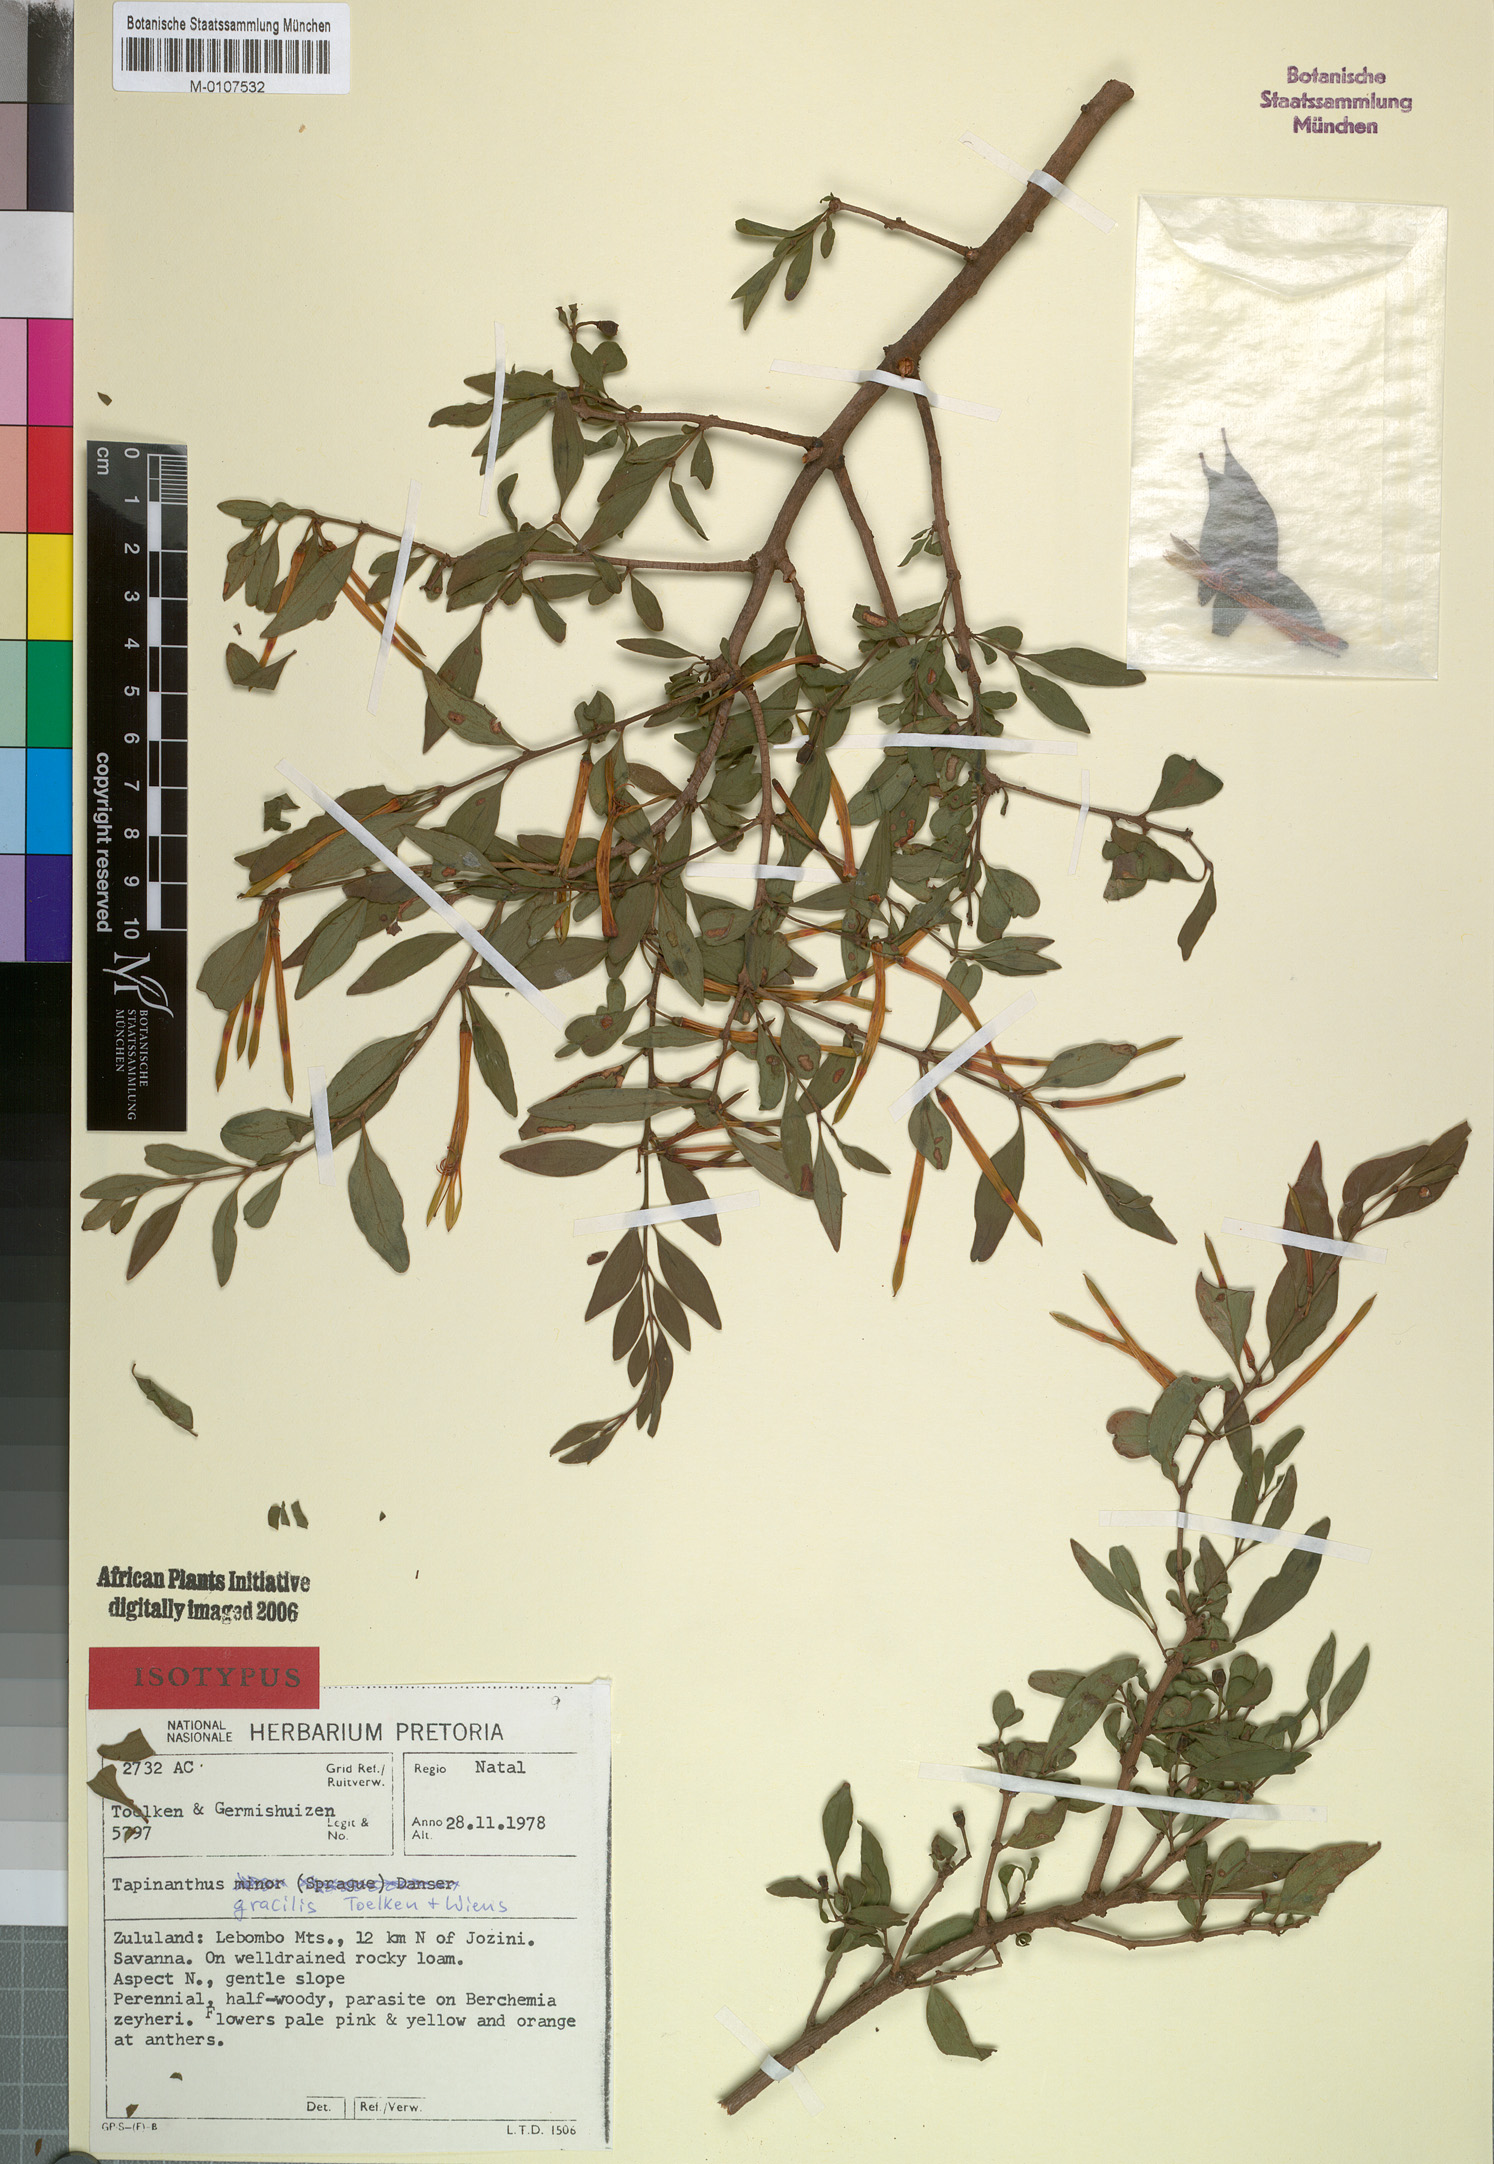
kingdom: Plantae
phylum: Tracheophyta
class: Magnoliopsida
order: Santalales
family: Loranthaceae
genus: Agelanthus
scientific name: Agelanthus gracilis
